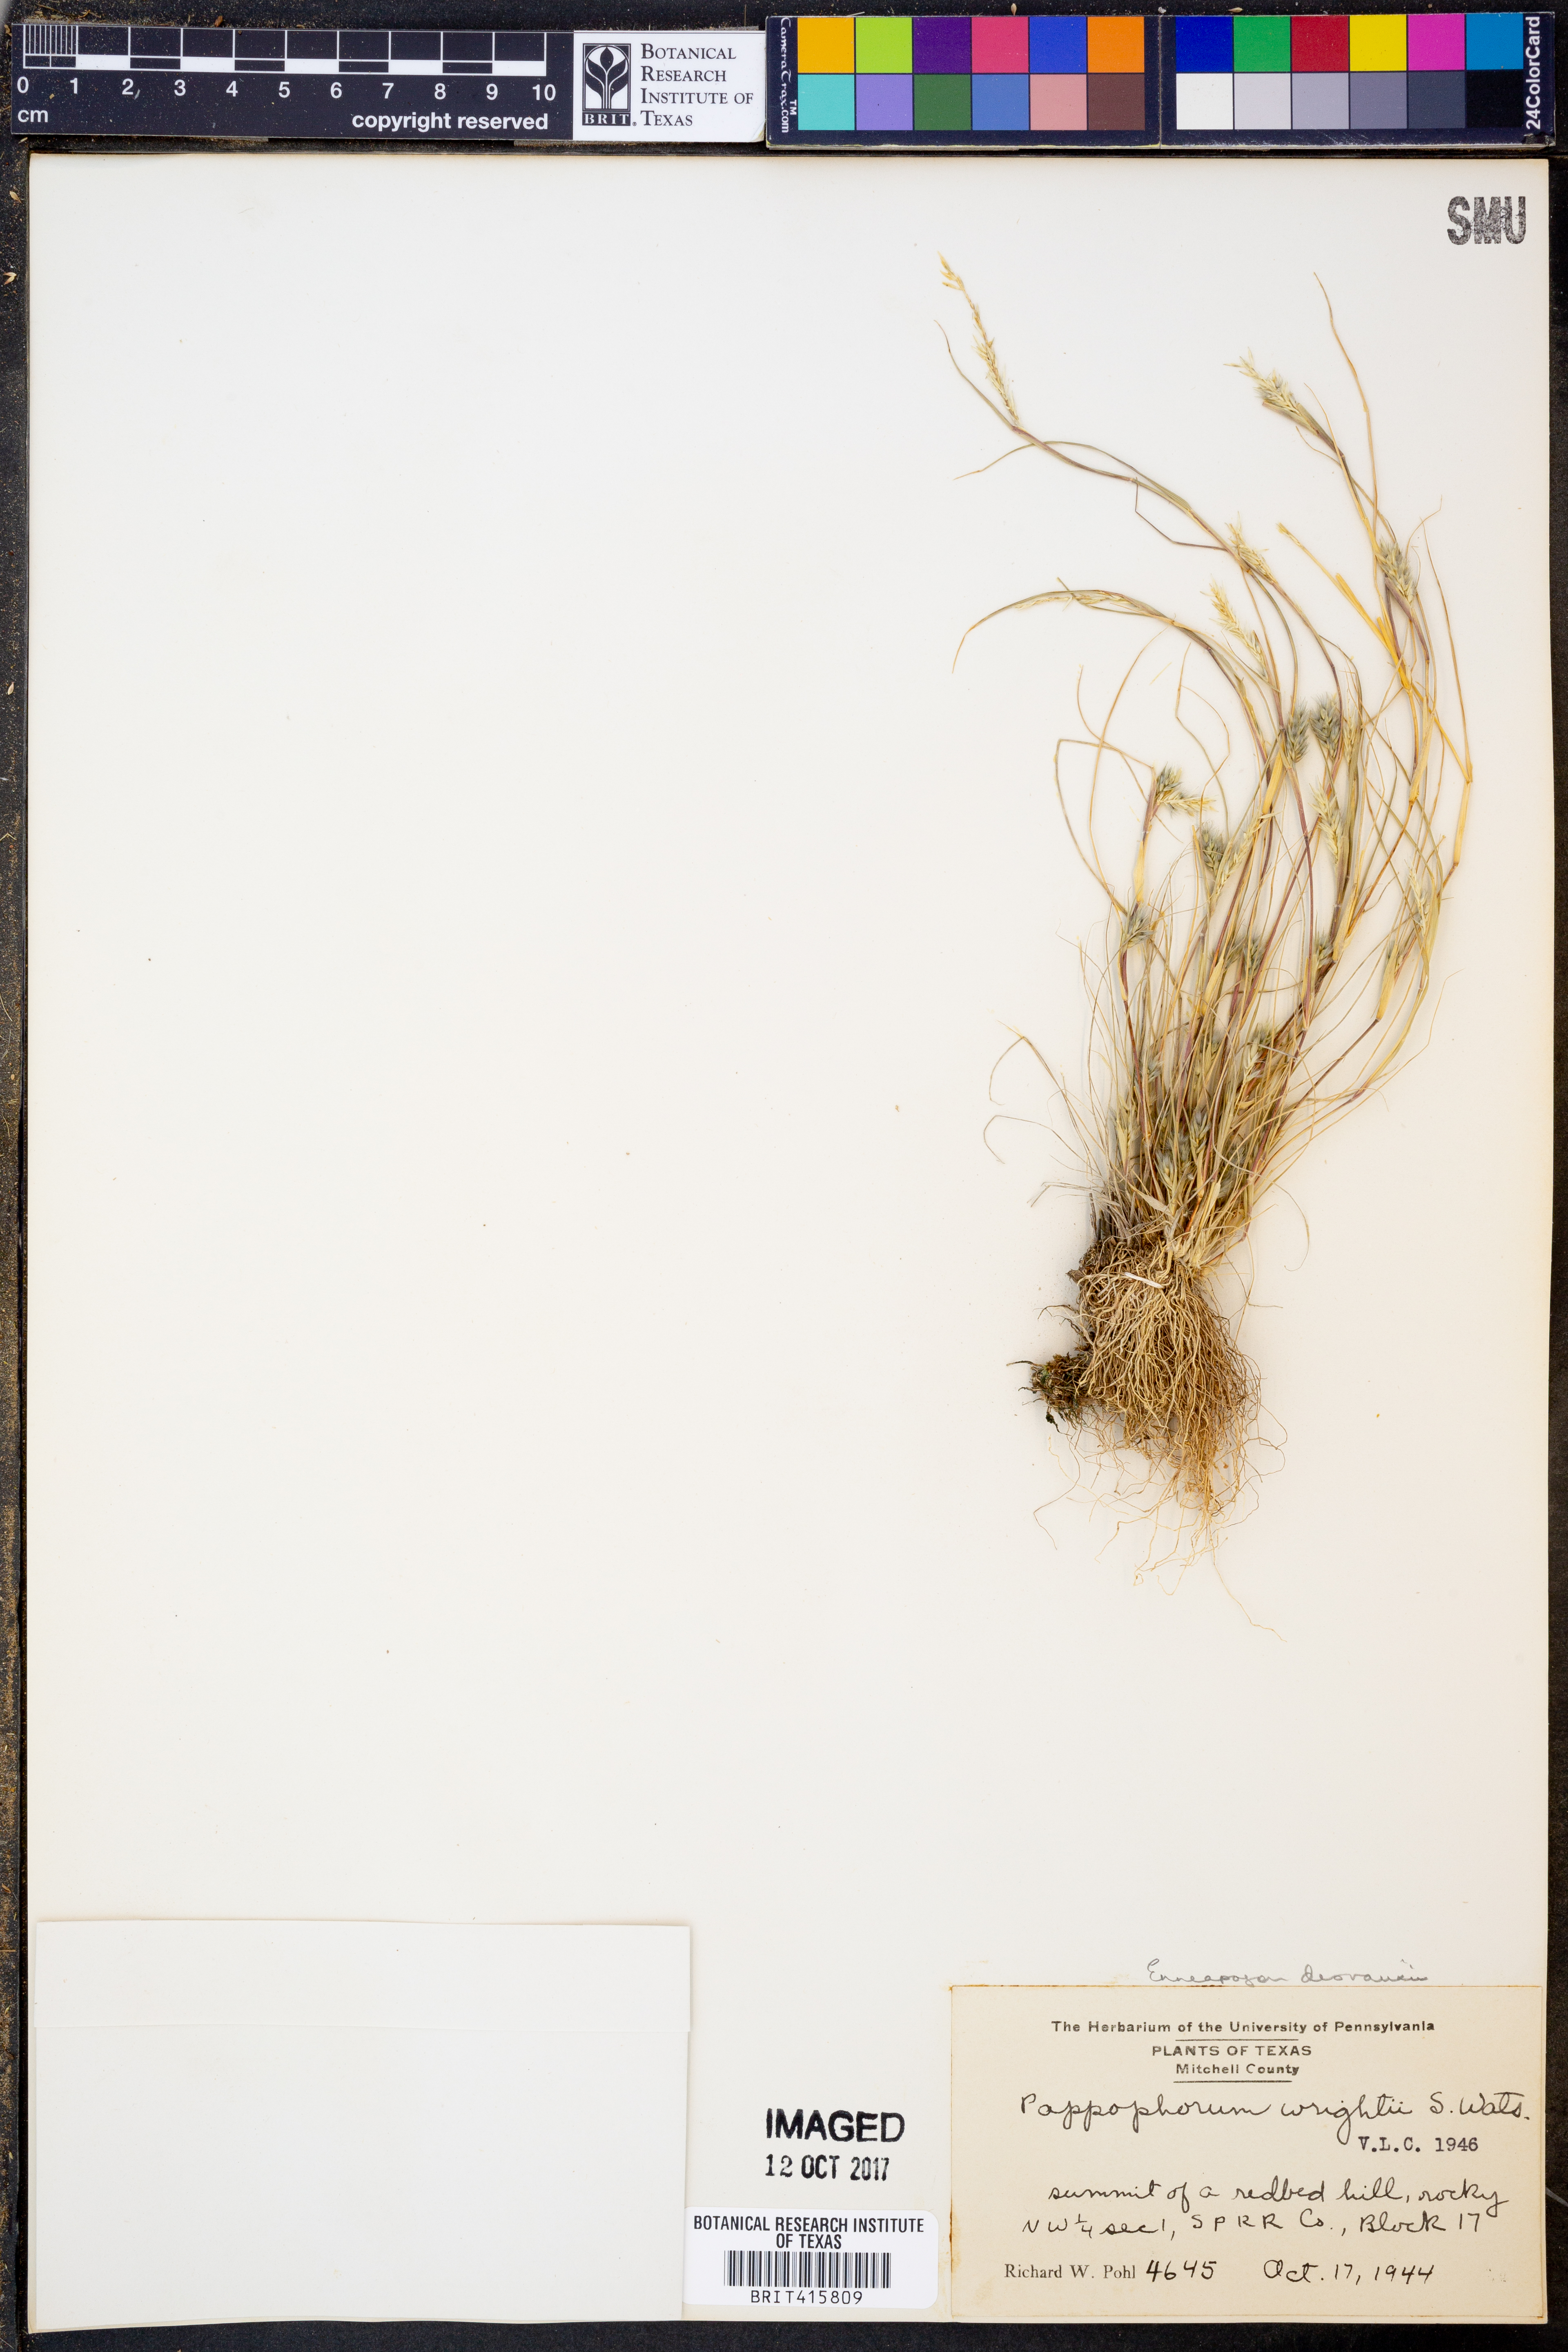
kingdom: Plantae
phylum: Tracheophyta
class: Liliopsida
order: Poales
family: Poaceae
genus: Enneapogon
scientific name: Enneapogon desvauxii
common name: Feather pappus grass
